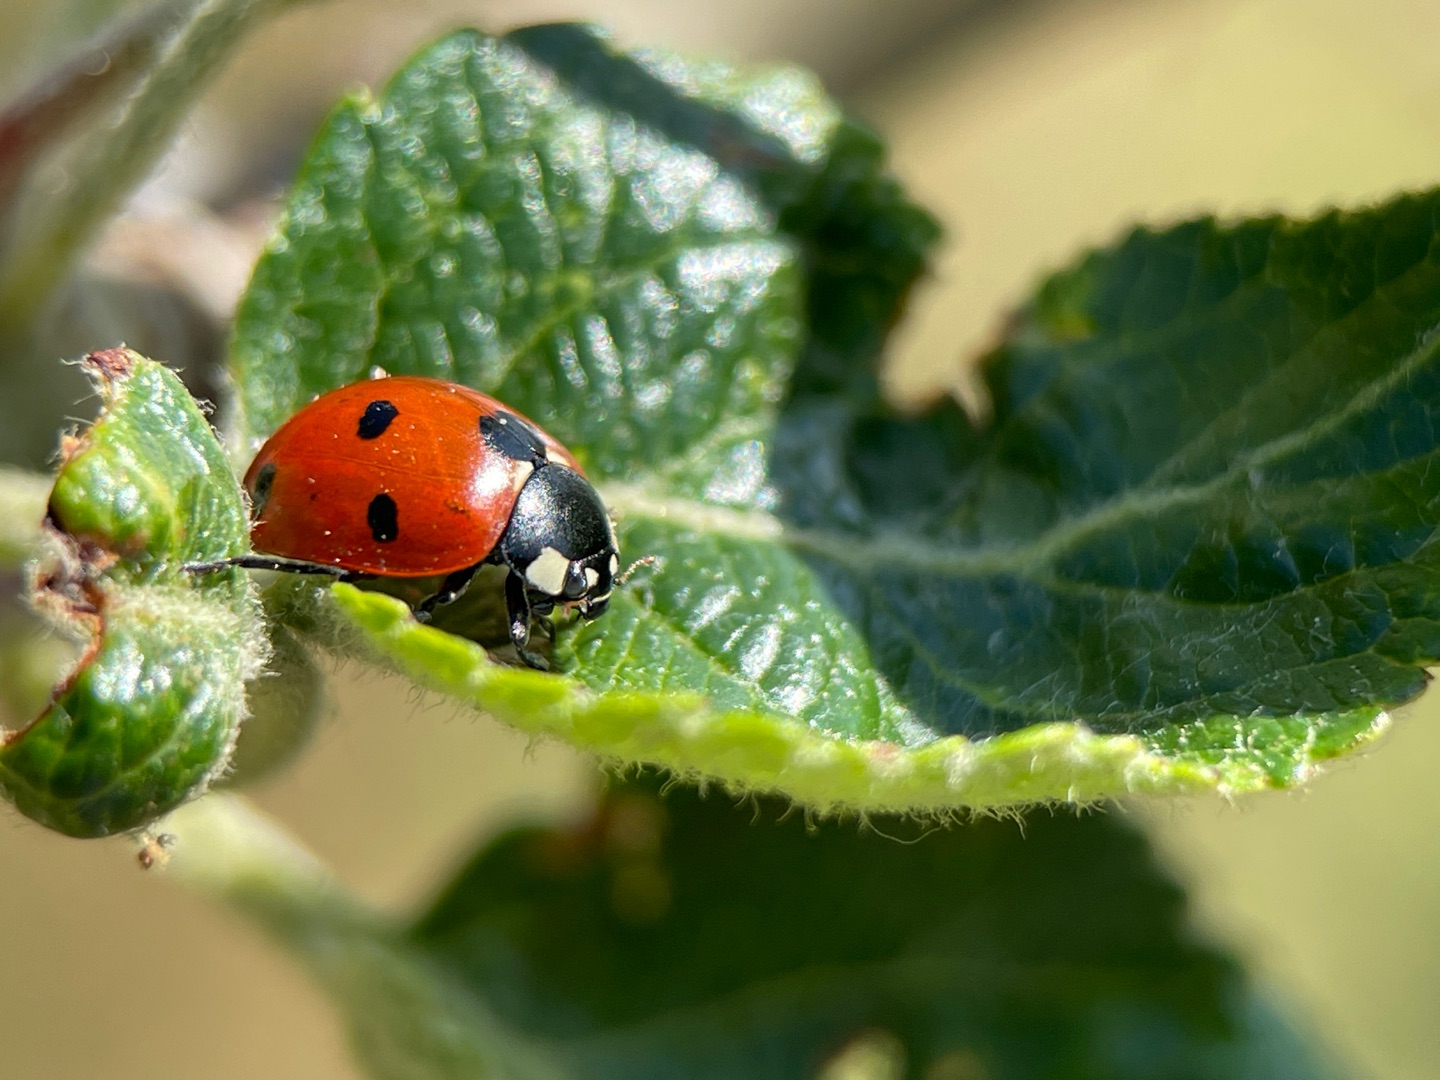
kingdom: Animalia
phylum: Arthropoda
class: Insecta
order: Coleoptera
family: Coccinellidae
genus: Coccinella
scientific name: Coccinella septempunctata
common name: Syvplettet mariehøne
